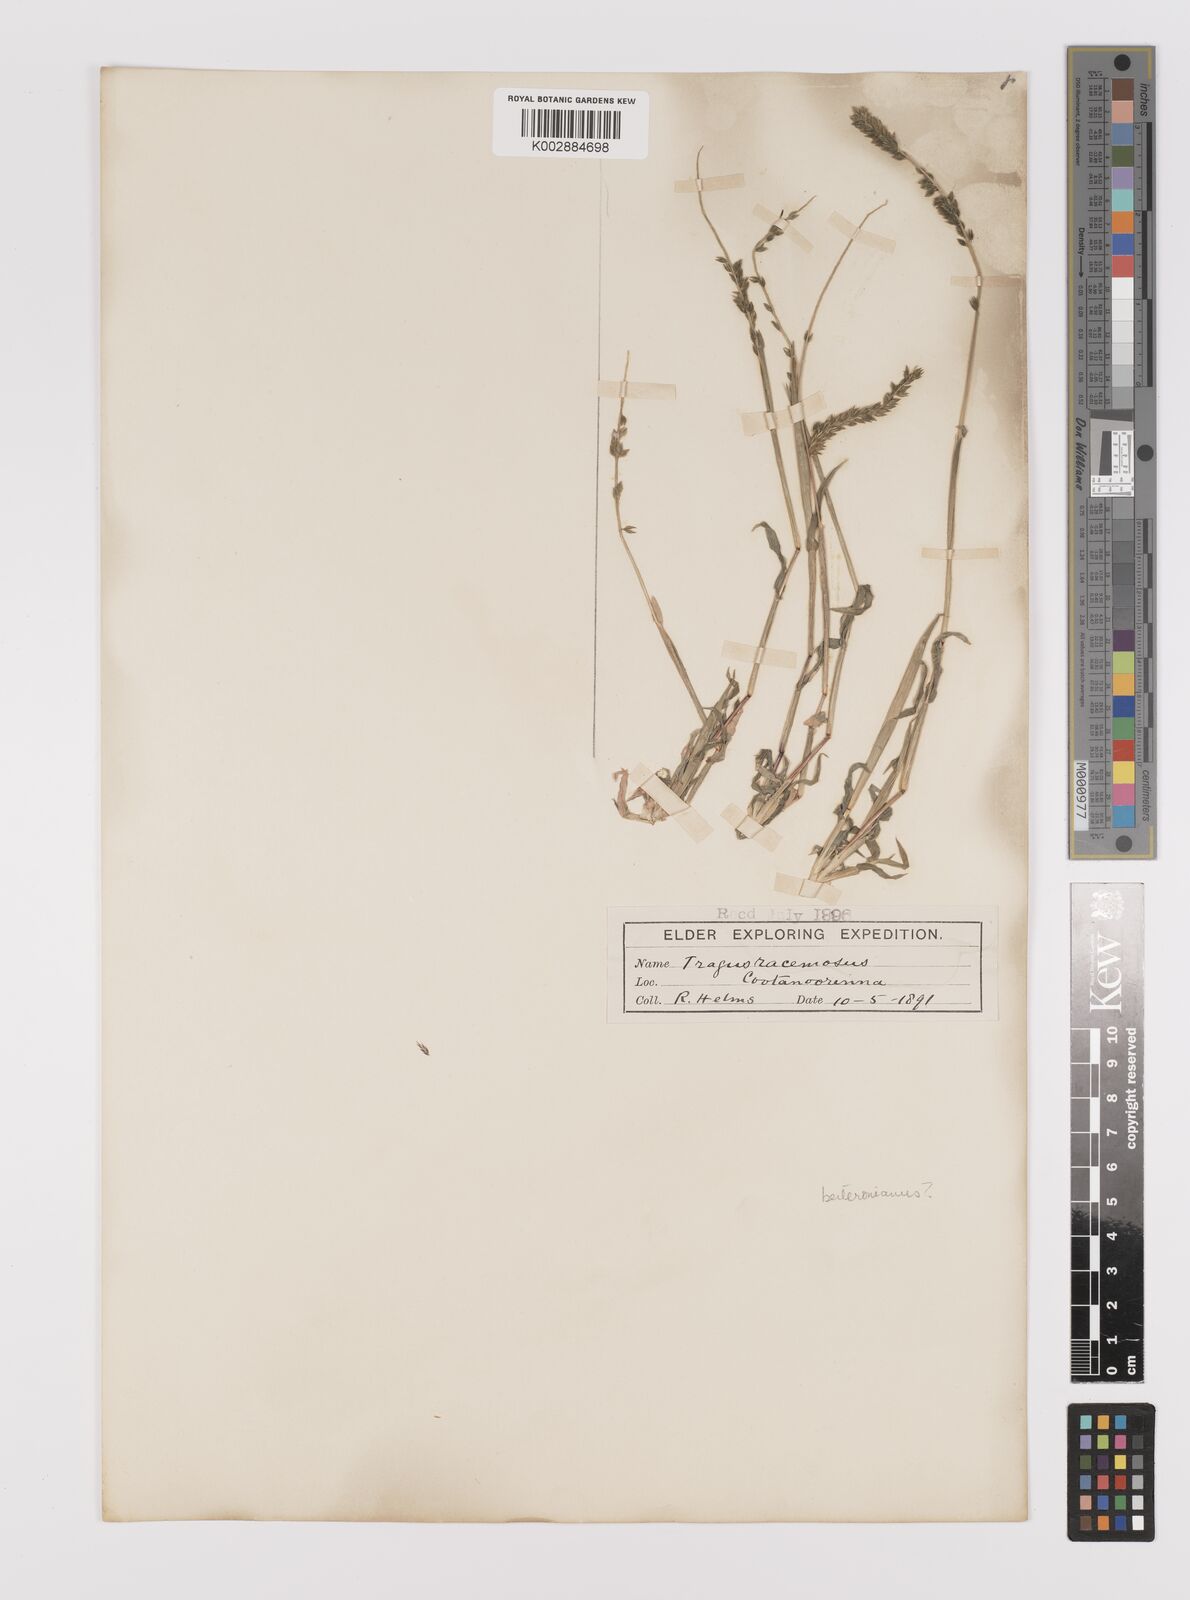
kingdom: Plantae
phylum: Tracheophyta
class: Liliopsida
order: Poales
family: Poaceae
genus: Tragus
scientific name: Tragus australianus
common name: Australian bur-grass
